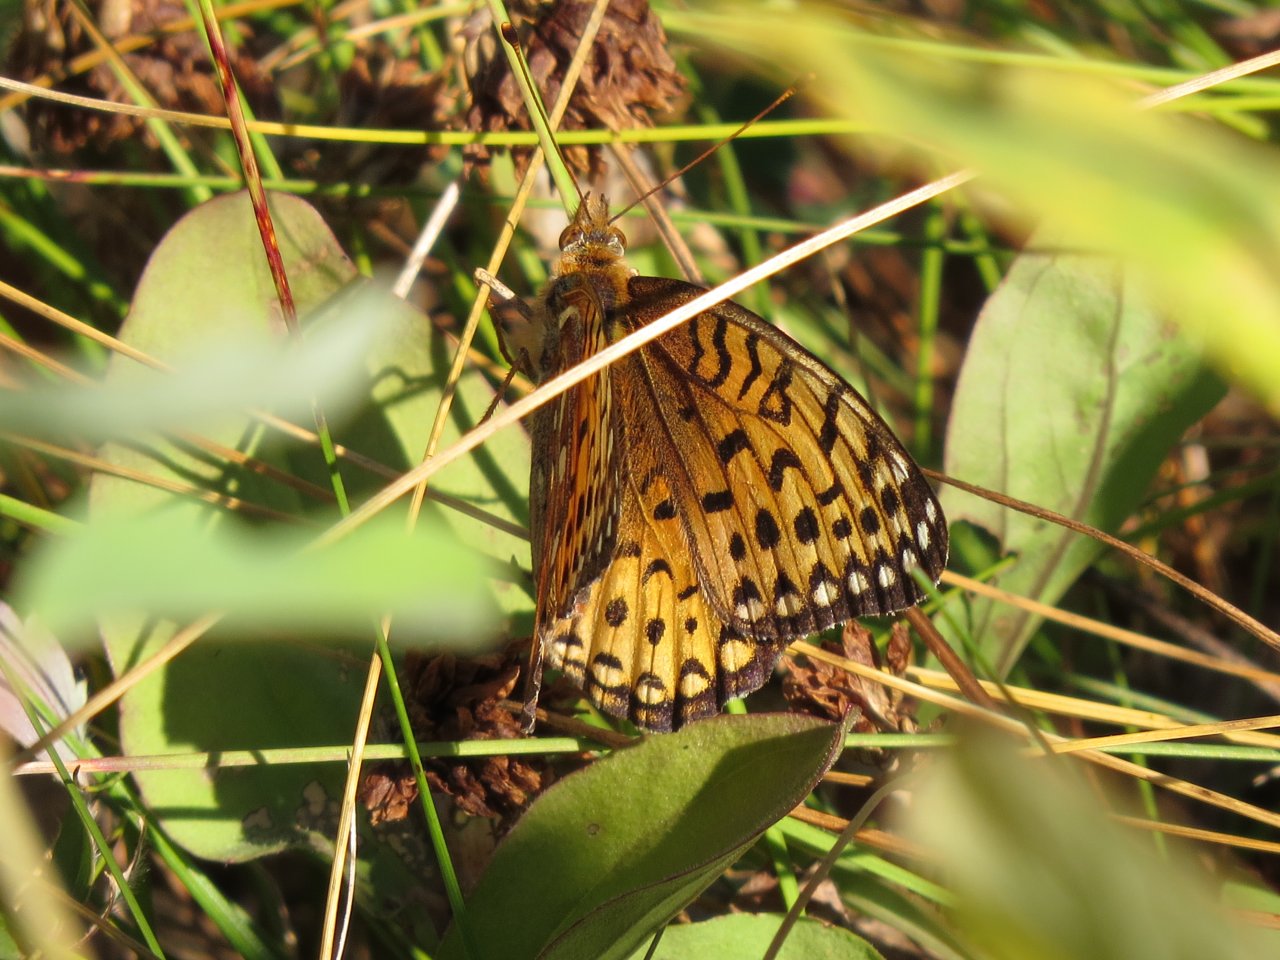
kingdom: Animalia
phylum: Arthropoda
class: Insecta
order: Lepidoptera
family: Nymphalidae
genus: Speyeria
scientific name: Speyeria aphrodite
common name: Aphrodite Fritillary
